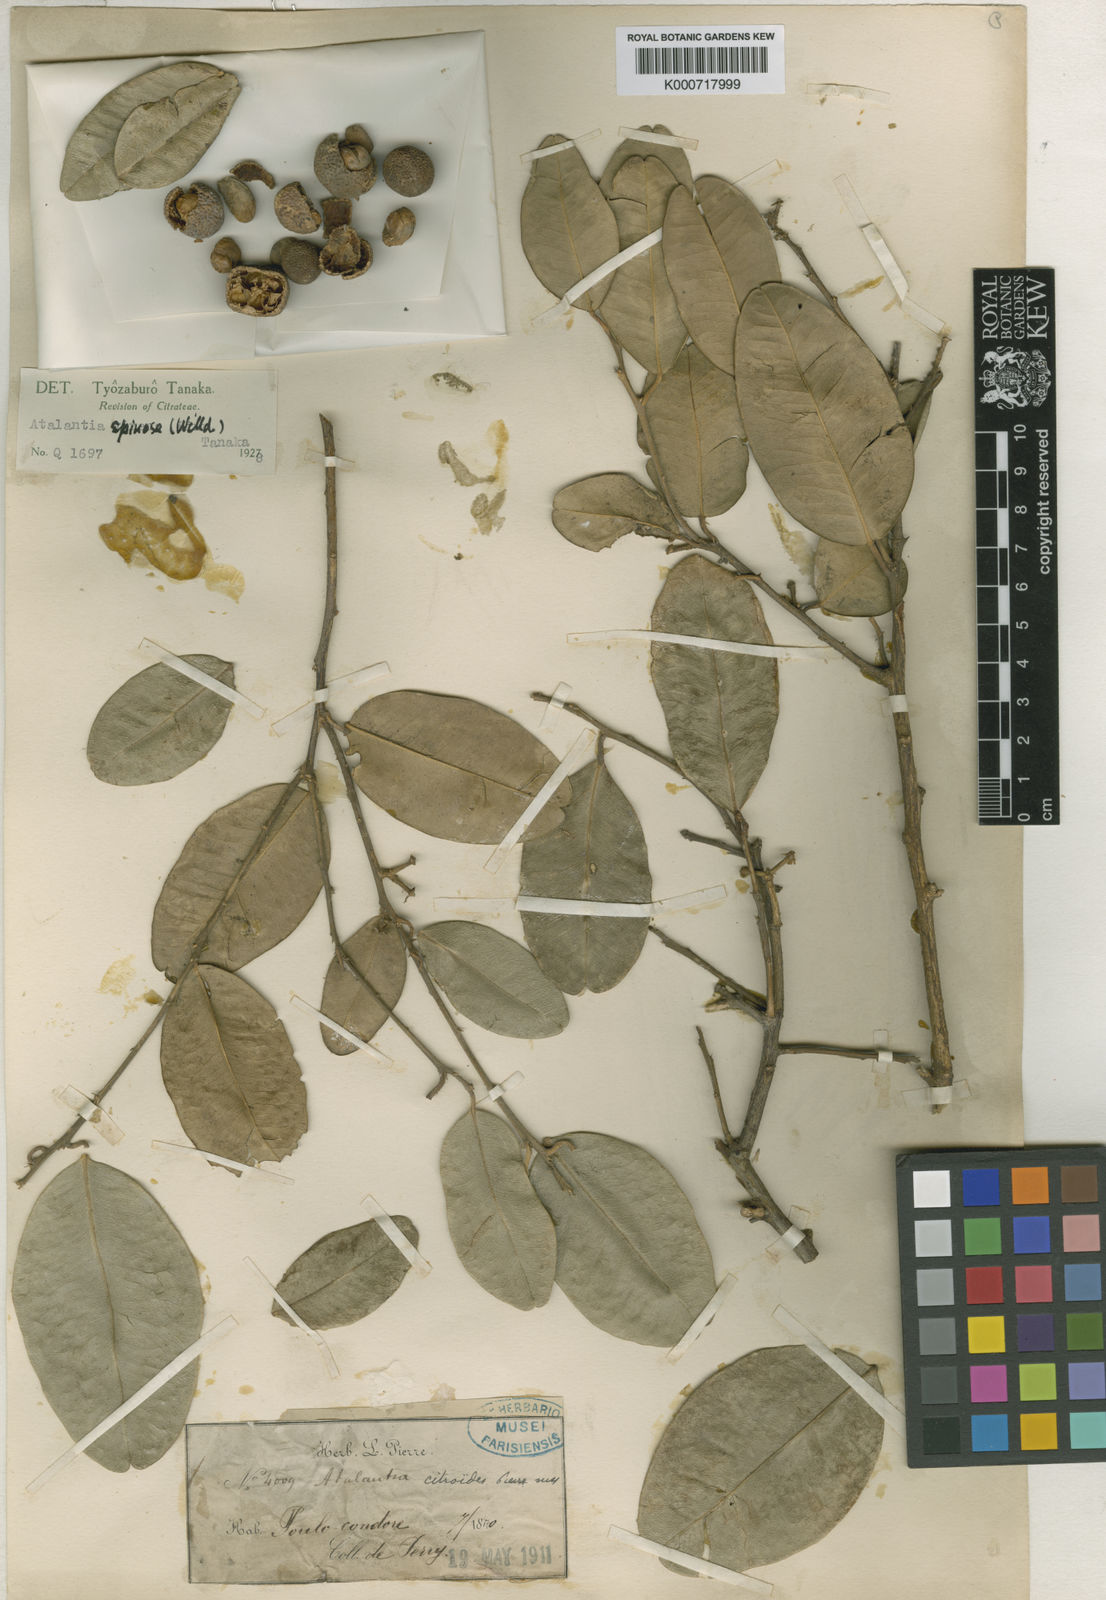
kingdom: Plantae
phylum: Tracheophyta
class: Magnoliopsida
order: Sapindales
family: Rutaceae
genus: Atalantia
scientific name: Atalantia citroides
